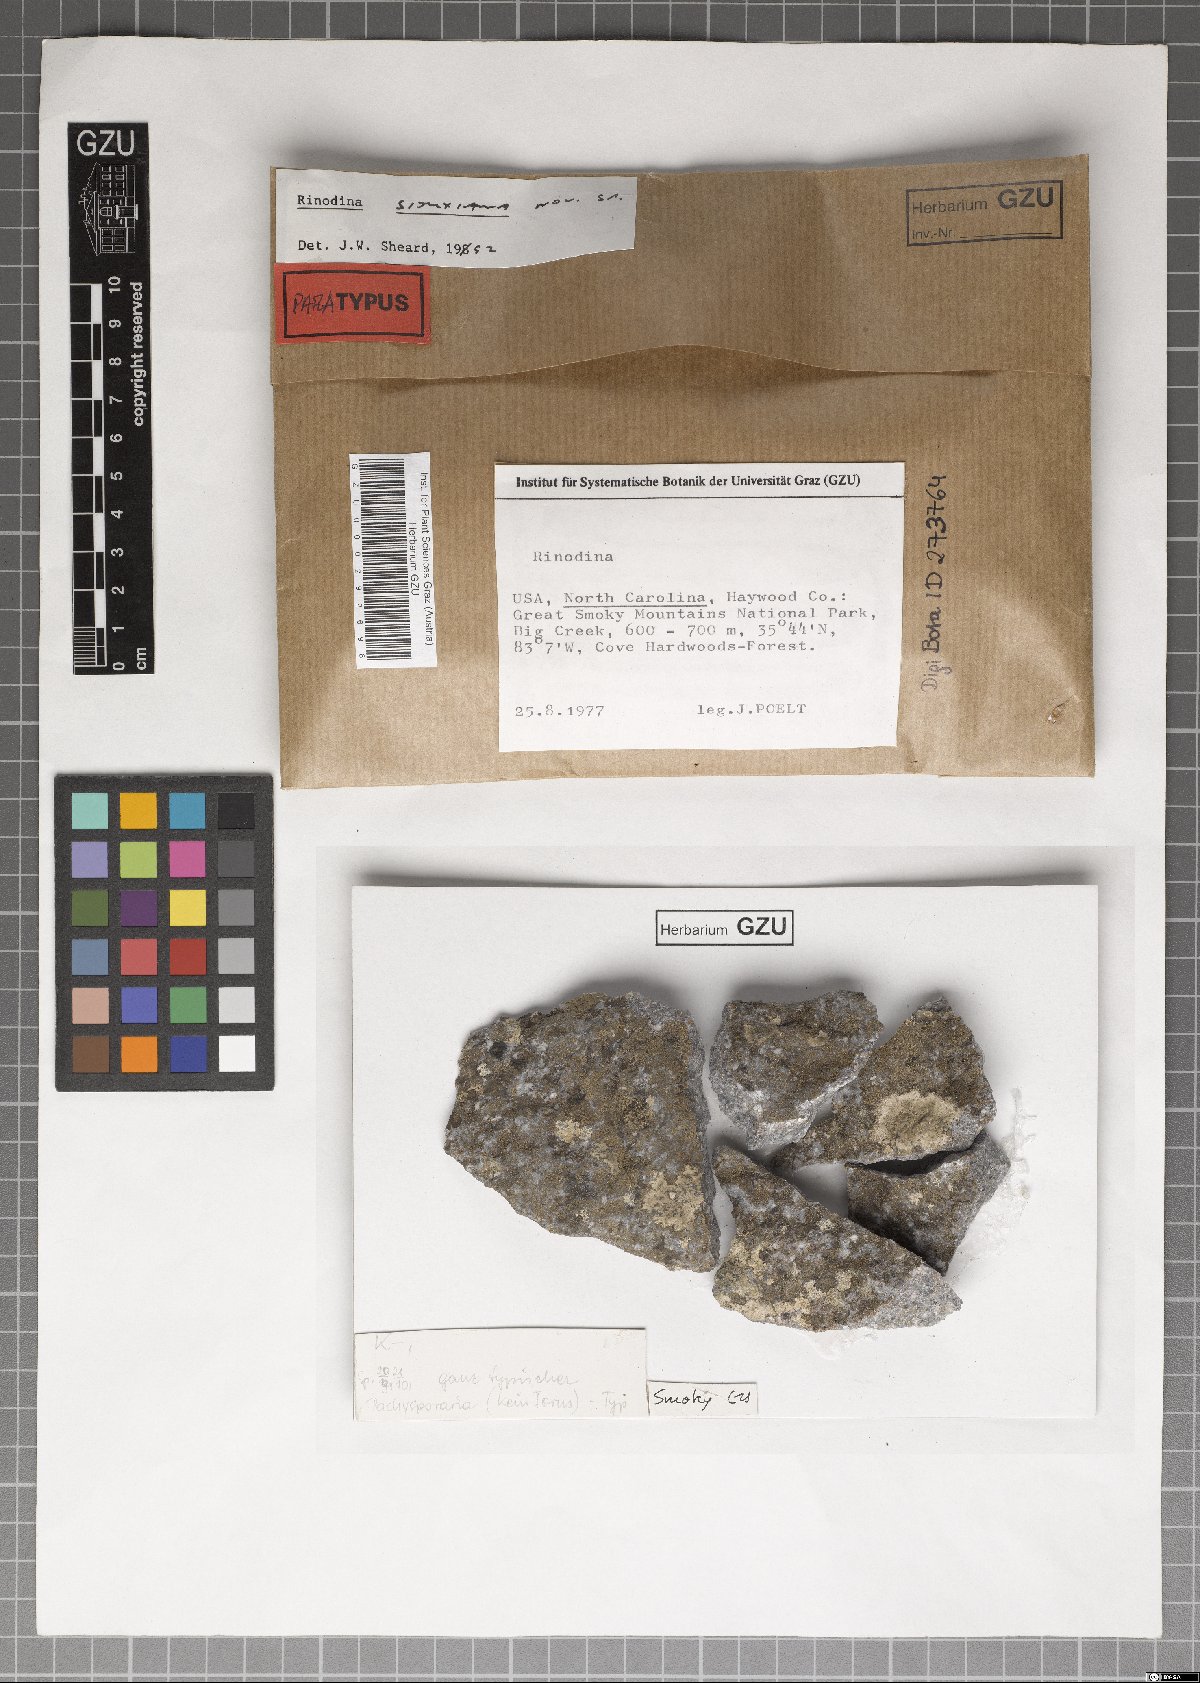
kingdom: Fungi
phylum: Ascomycota
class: Lecanoromycetes
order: Caliciales
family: Physciaceae
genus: Rinodina
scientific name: Rinodina siouxiana
